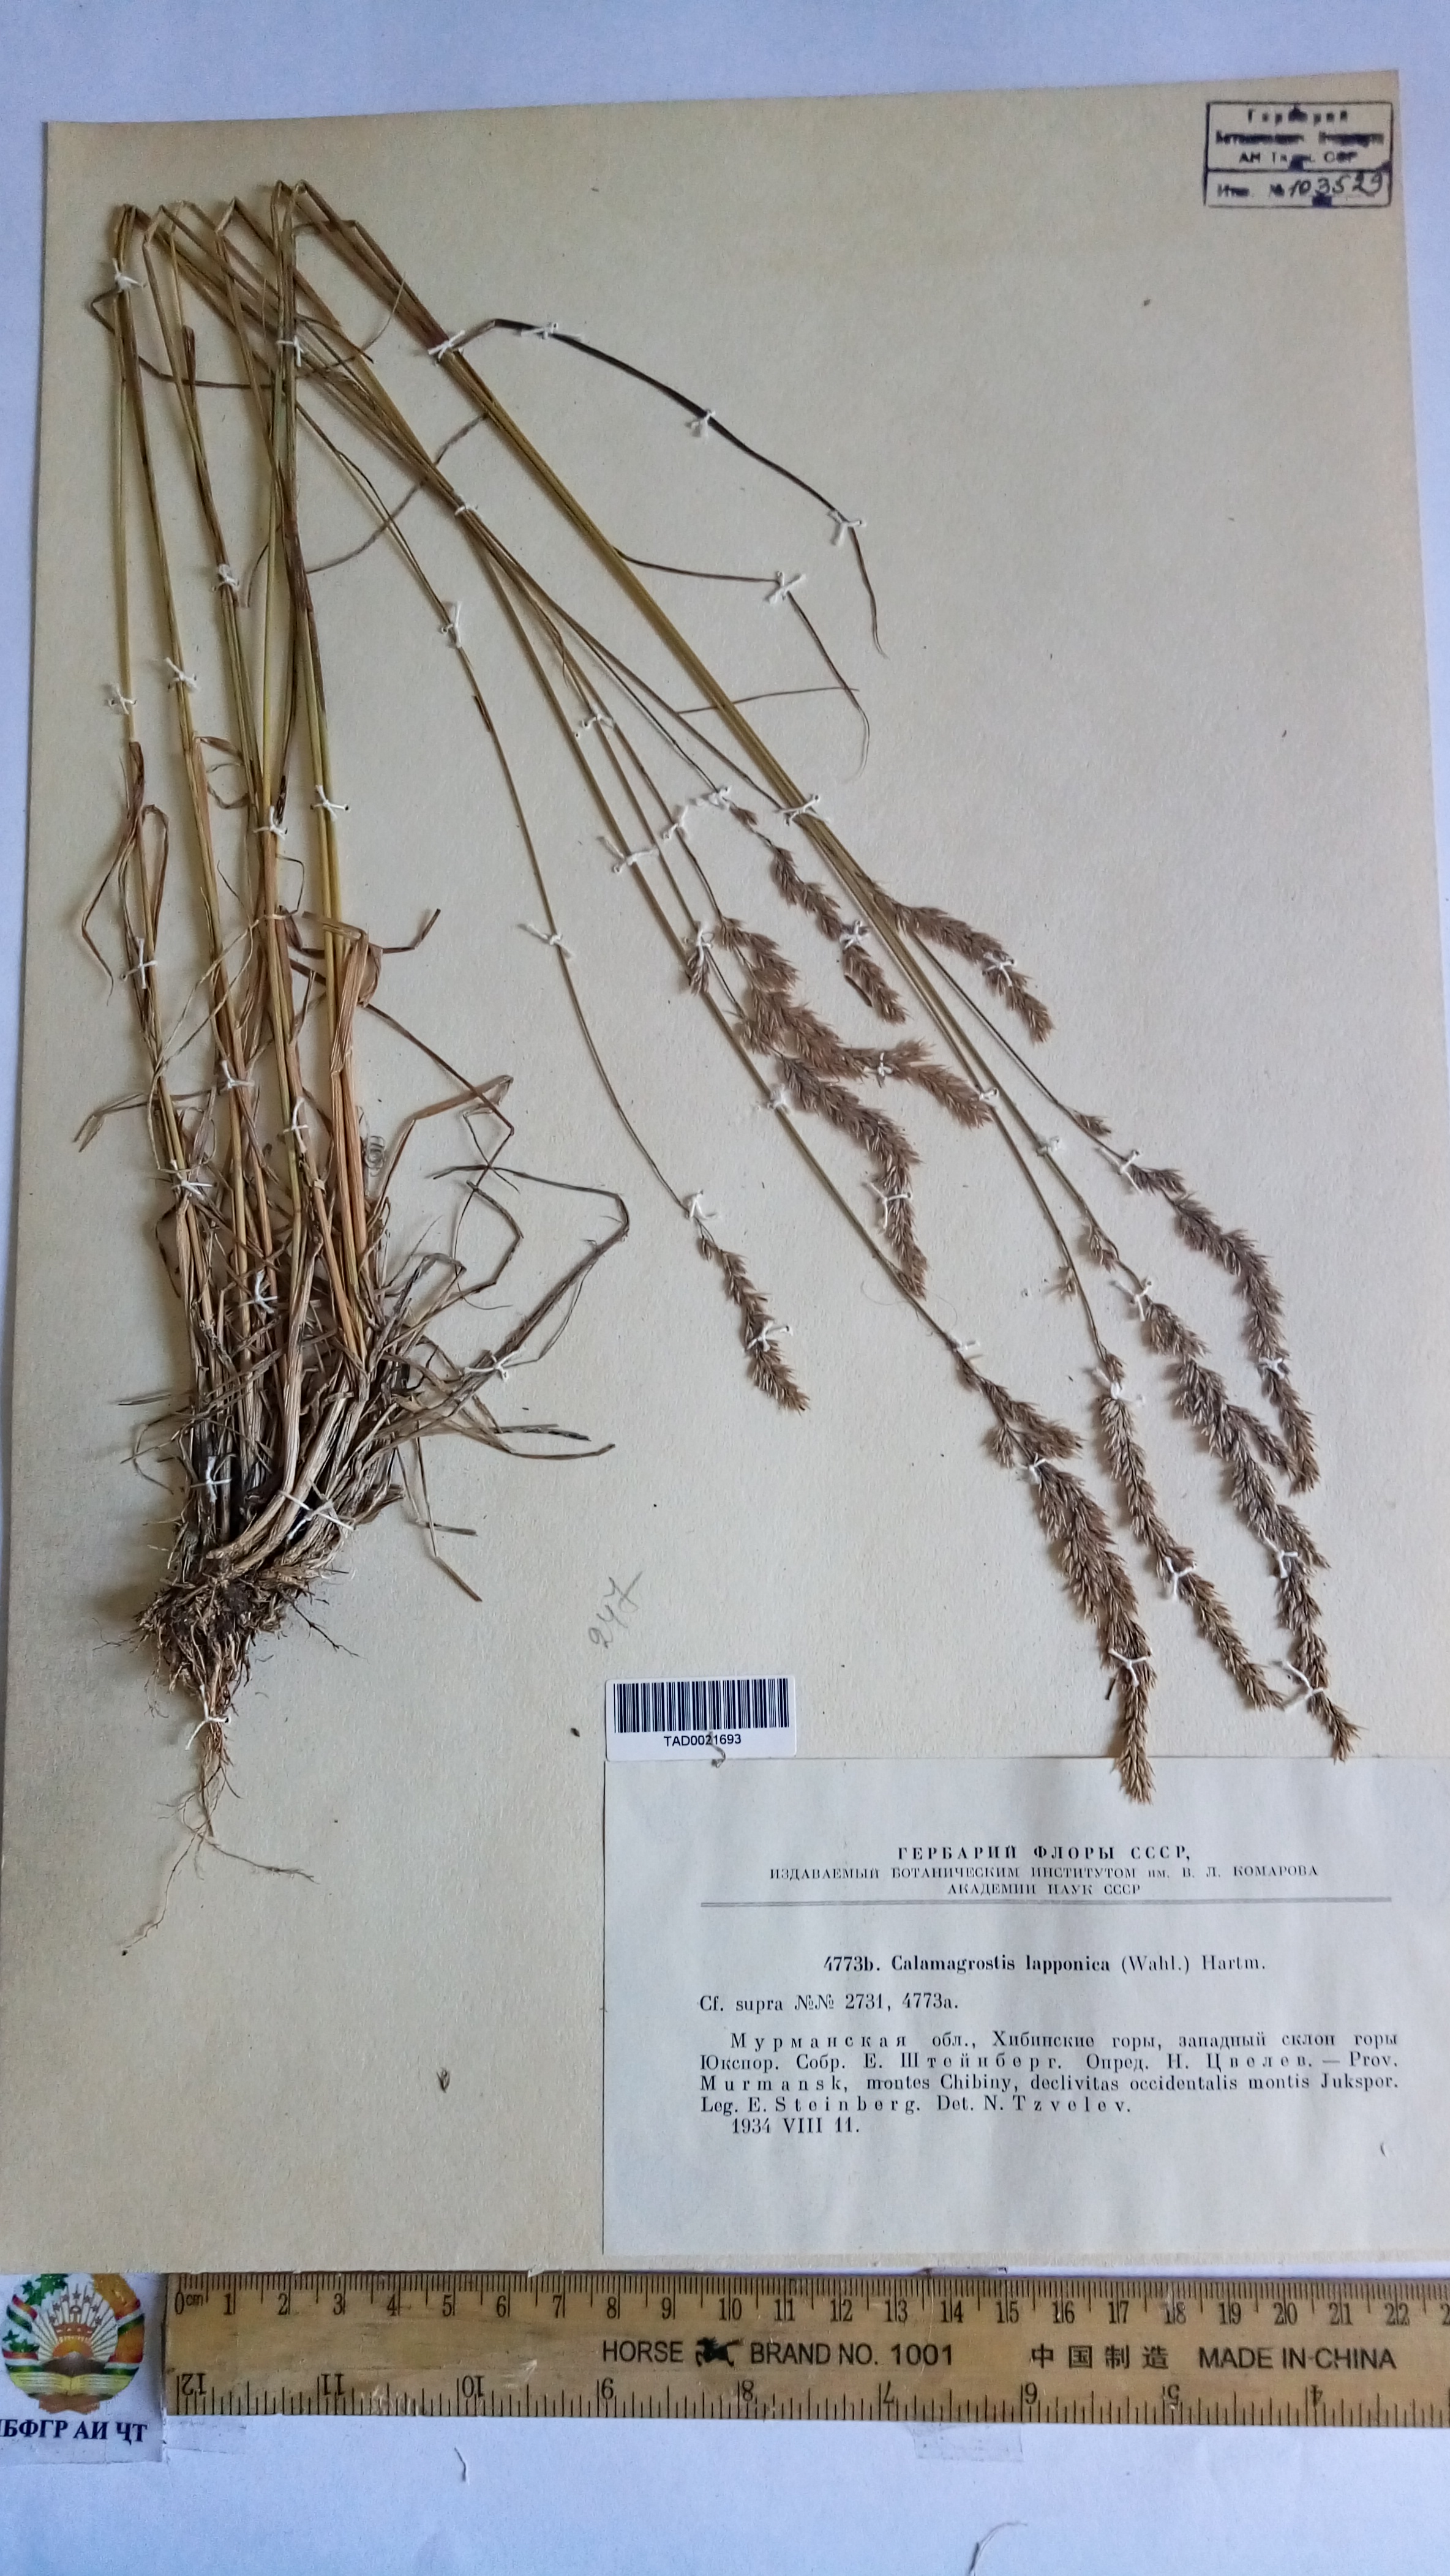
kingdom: Plantae
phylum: Tracheophyta
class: Liliopsida
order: Poales
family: Poaceae
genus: Calamagrostis
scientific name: Calamagrostis lapponica
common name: Lapland reedgrass
